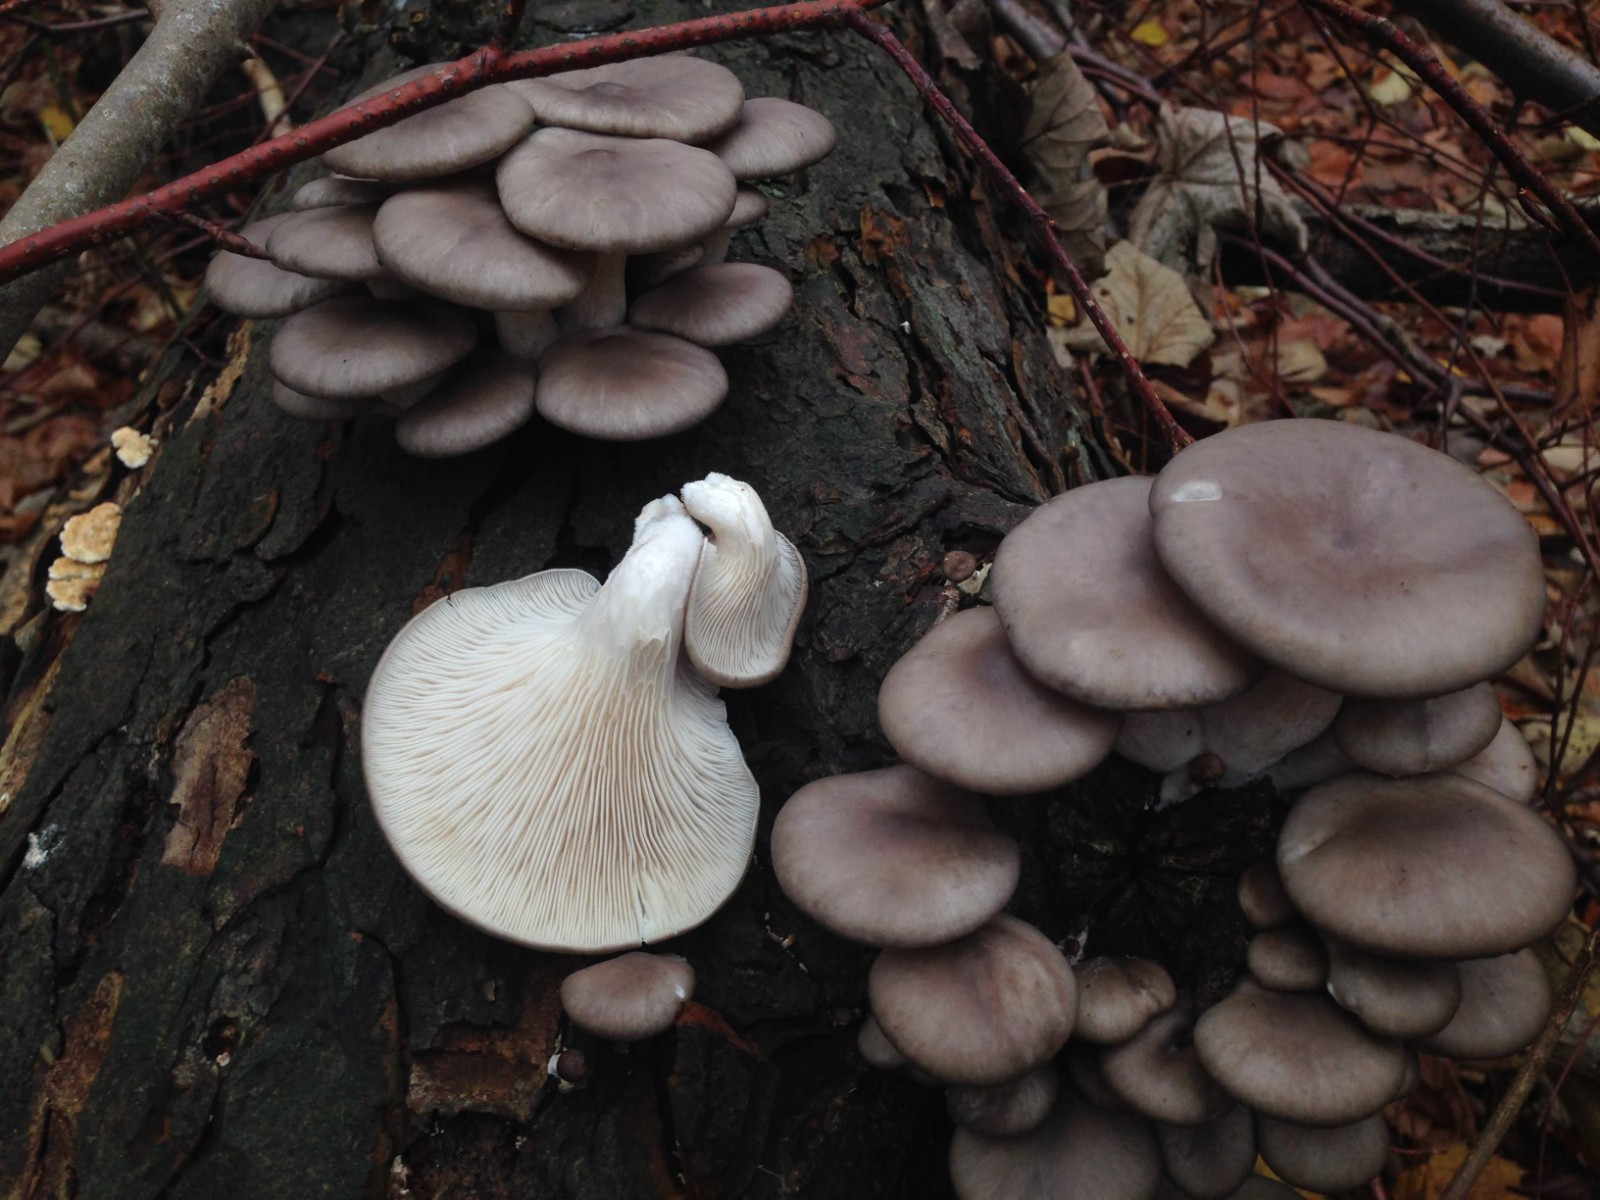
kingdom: Fungi
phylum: Basidiomycota
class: Agaricomycetes
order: Agaricales
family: Pleurotaceae
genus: Pleurotus
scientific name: Pleurotus ostreatus
